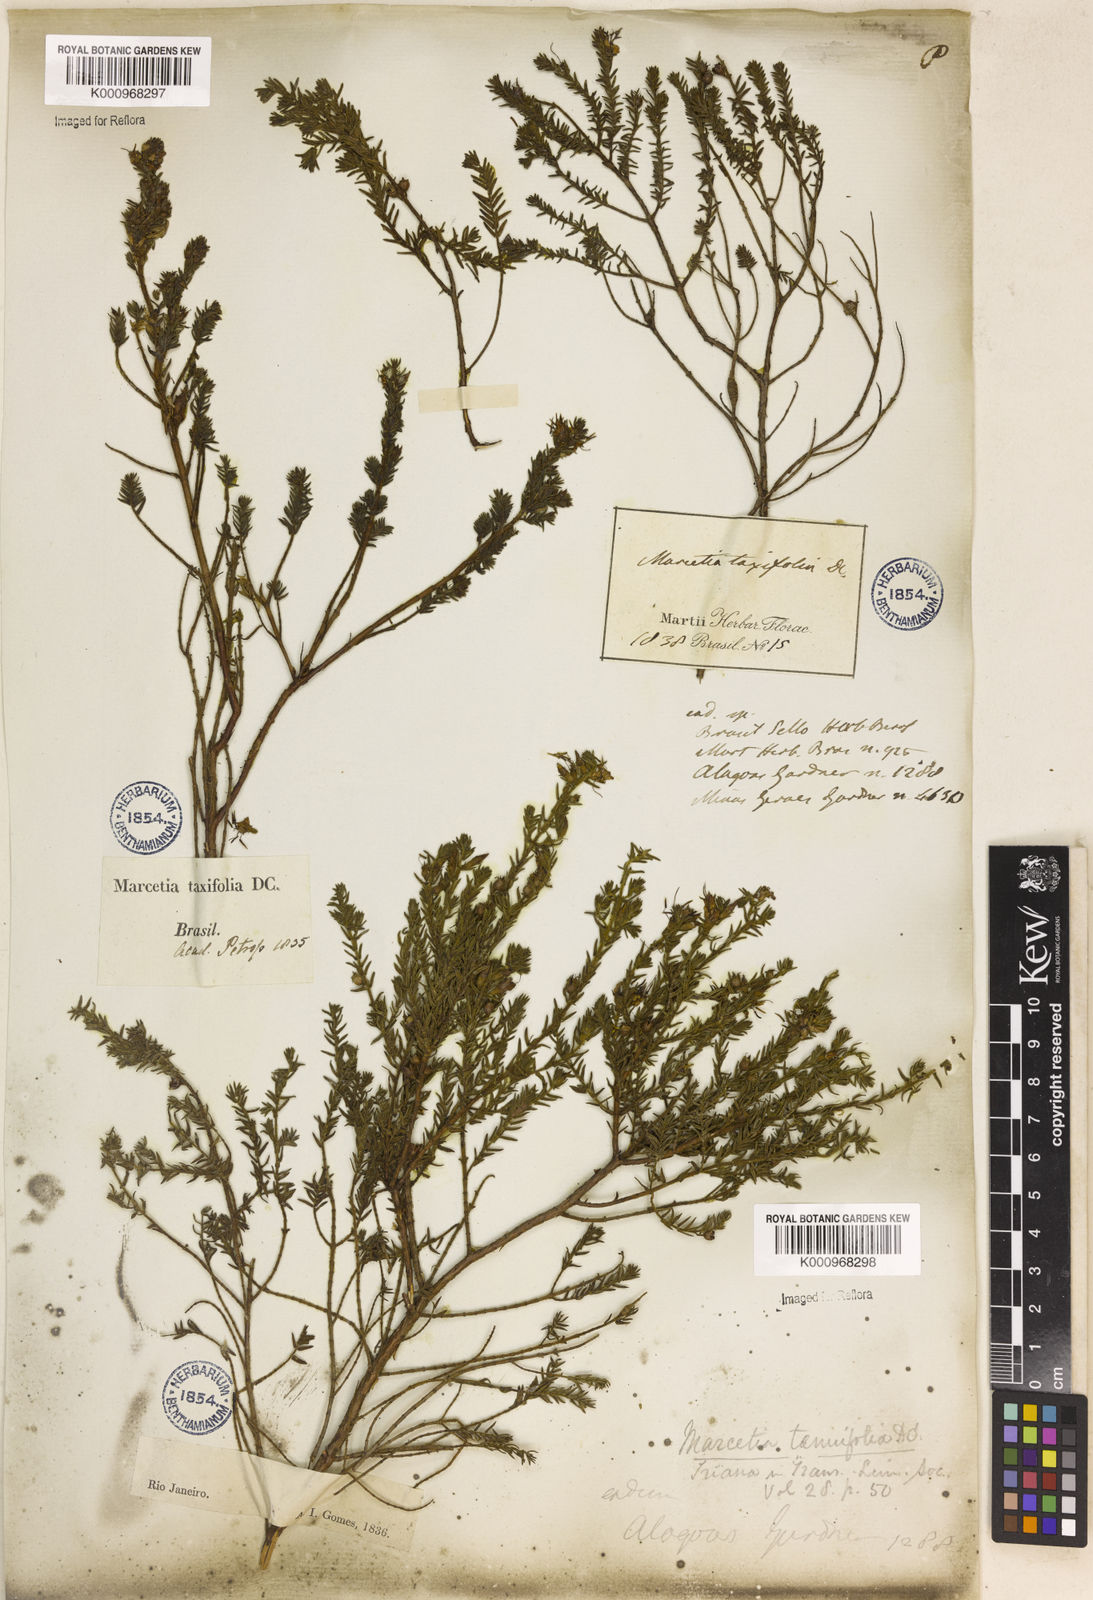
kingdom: Plantae
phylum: Tracheophyta
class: Magnoliopsida
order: Myrtales
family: Melastomataceae
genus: Marcetia
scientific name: Marcetia taxifolia
